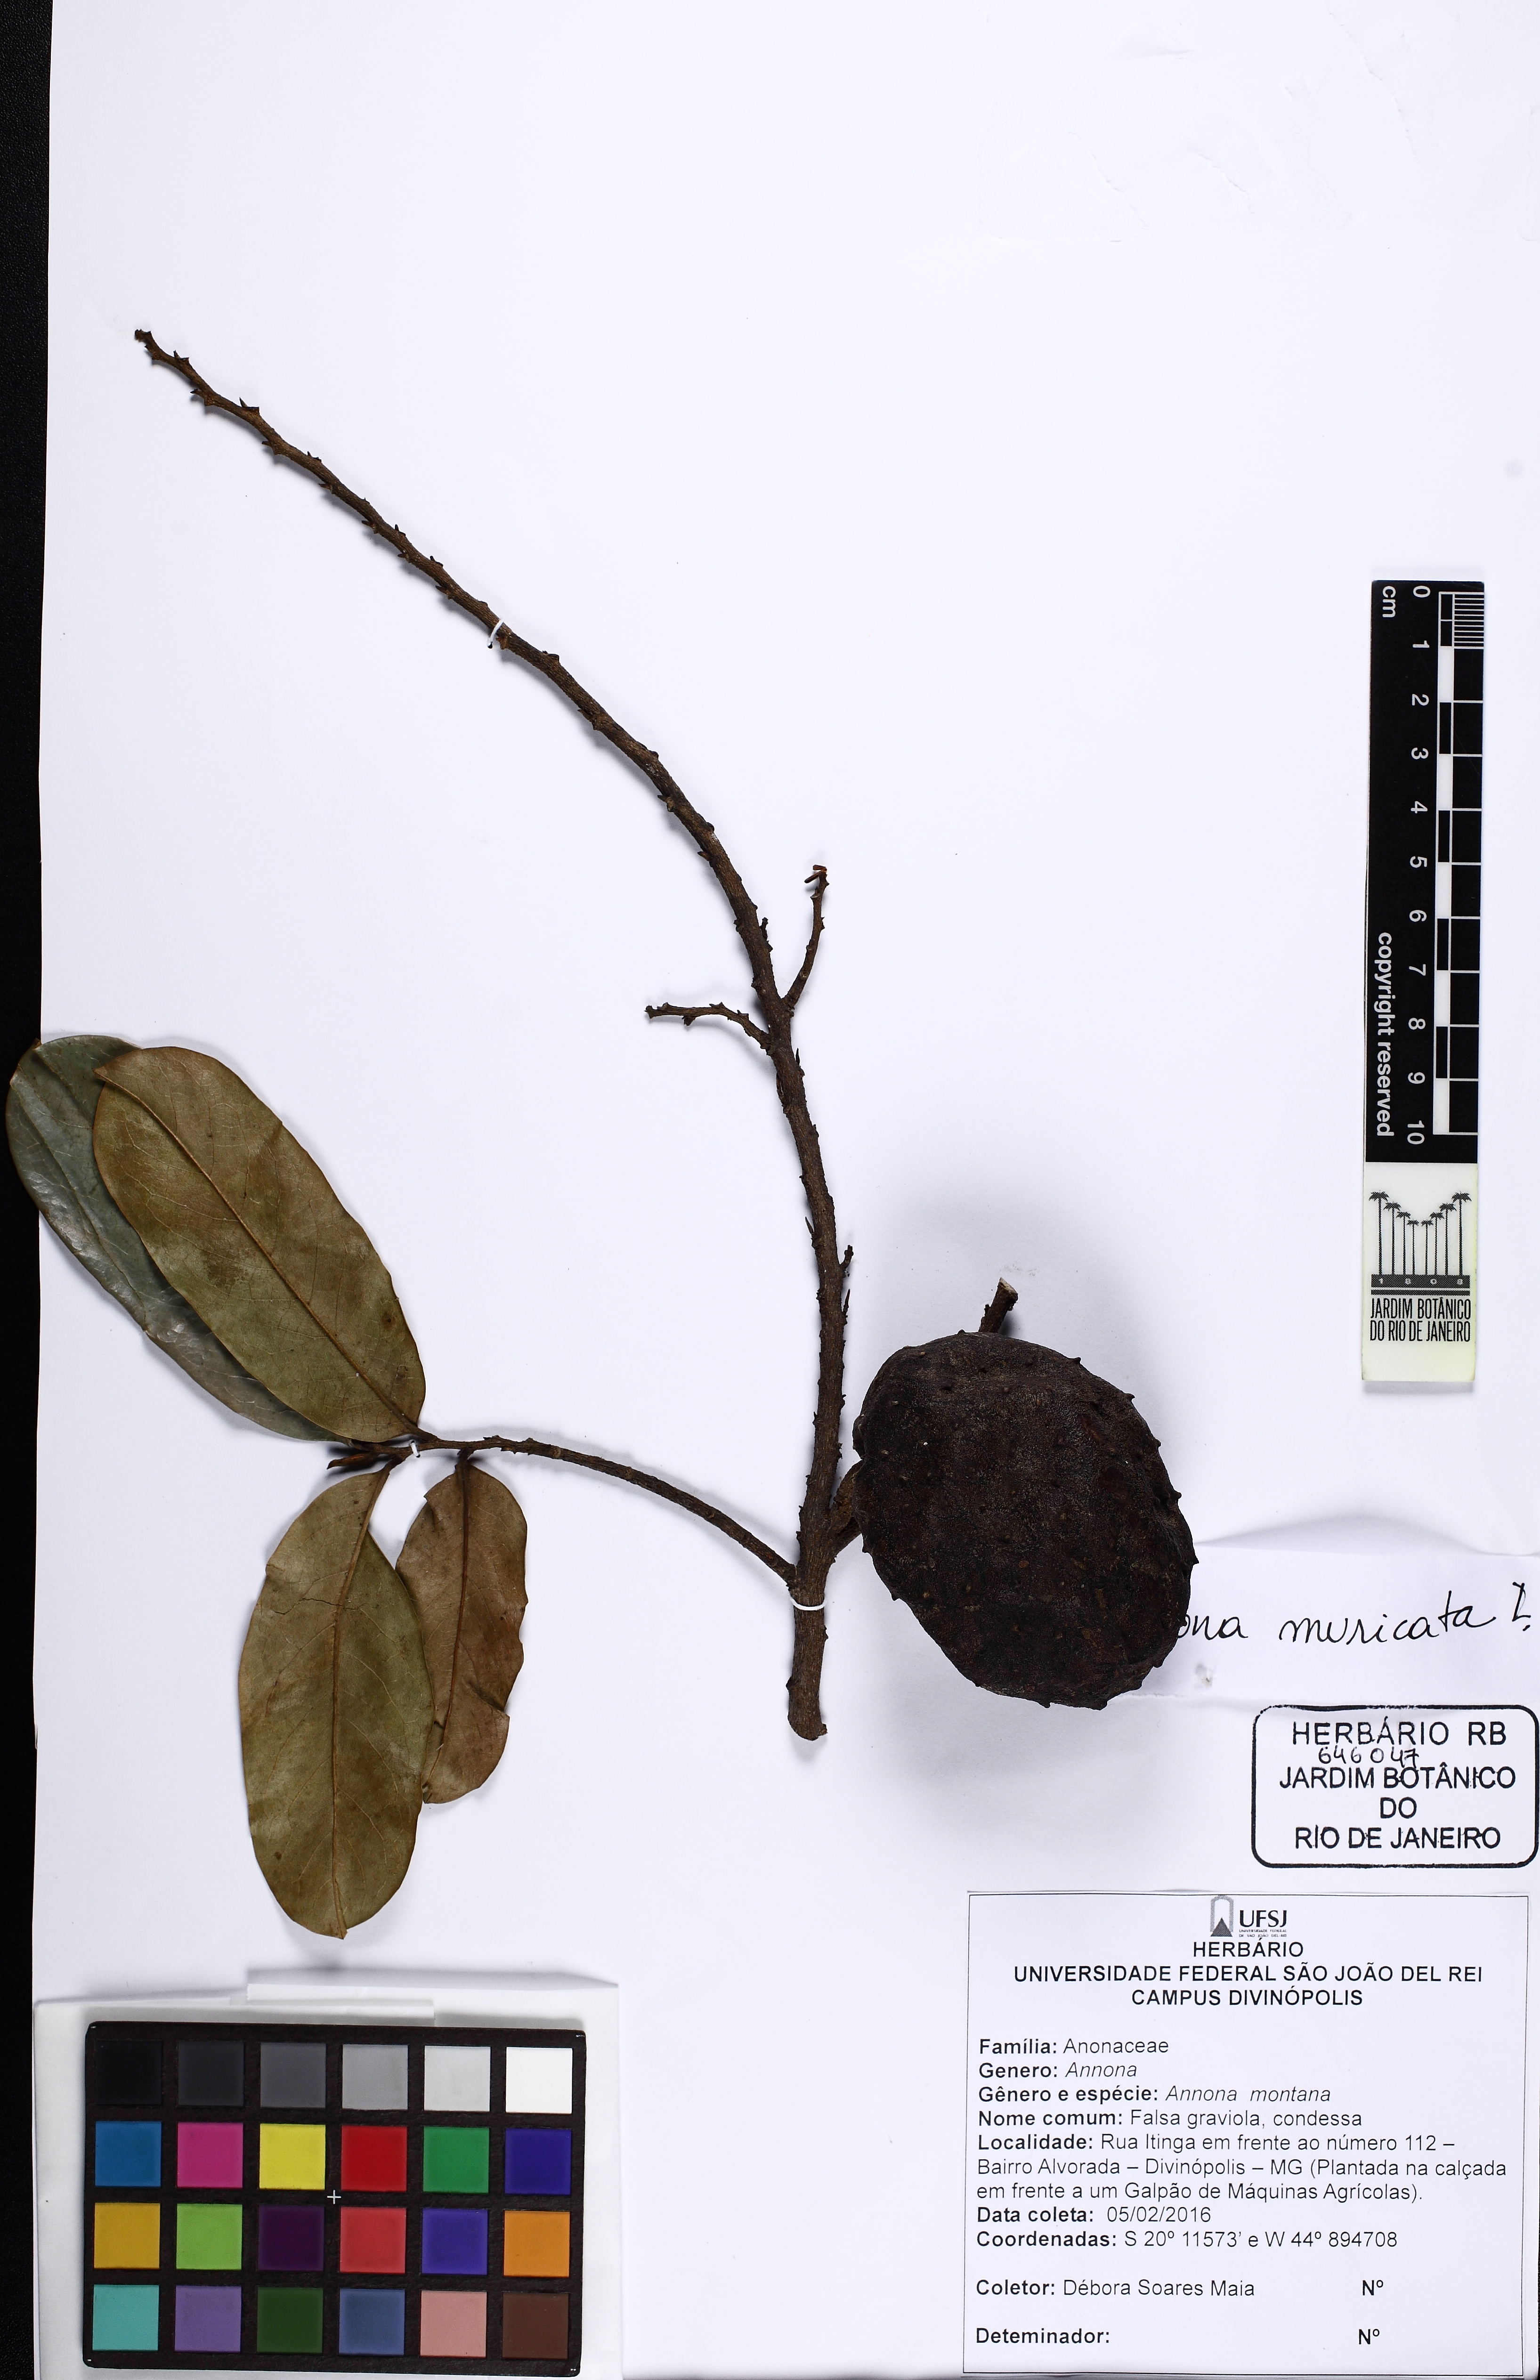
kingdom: Plantae
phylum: Tracheophyta
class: Magnoliopsida
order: Magnoliales
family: Annonaceae
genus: Annona
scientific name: Annona muricata
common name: Soursop
